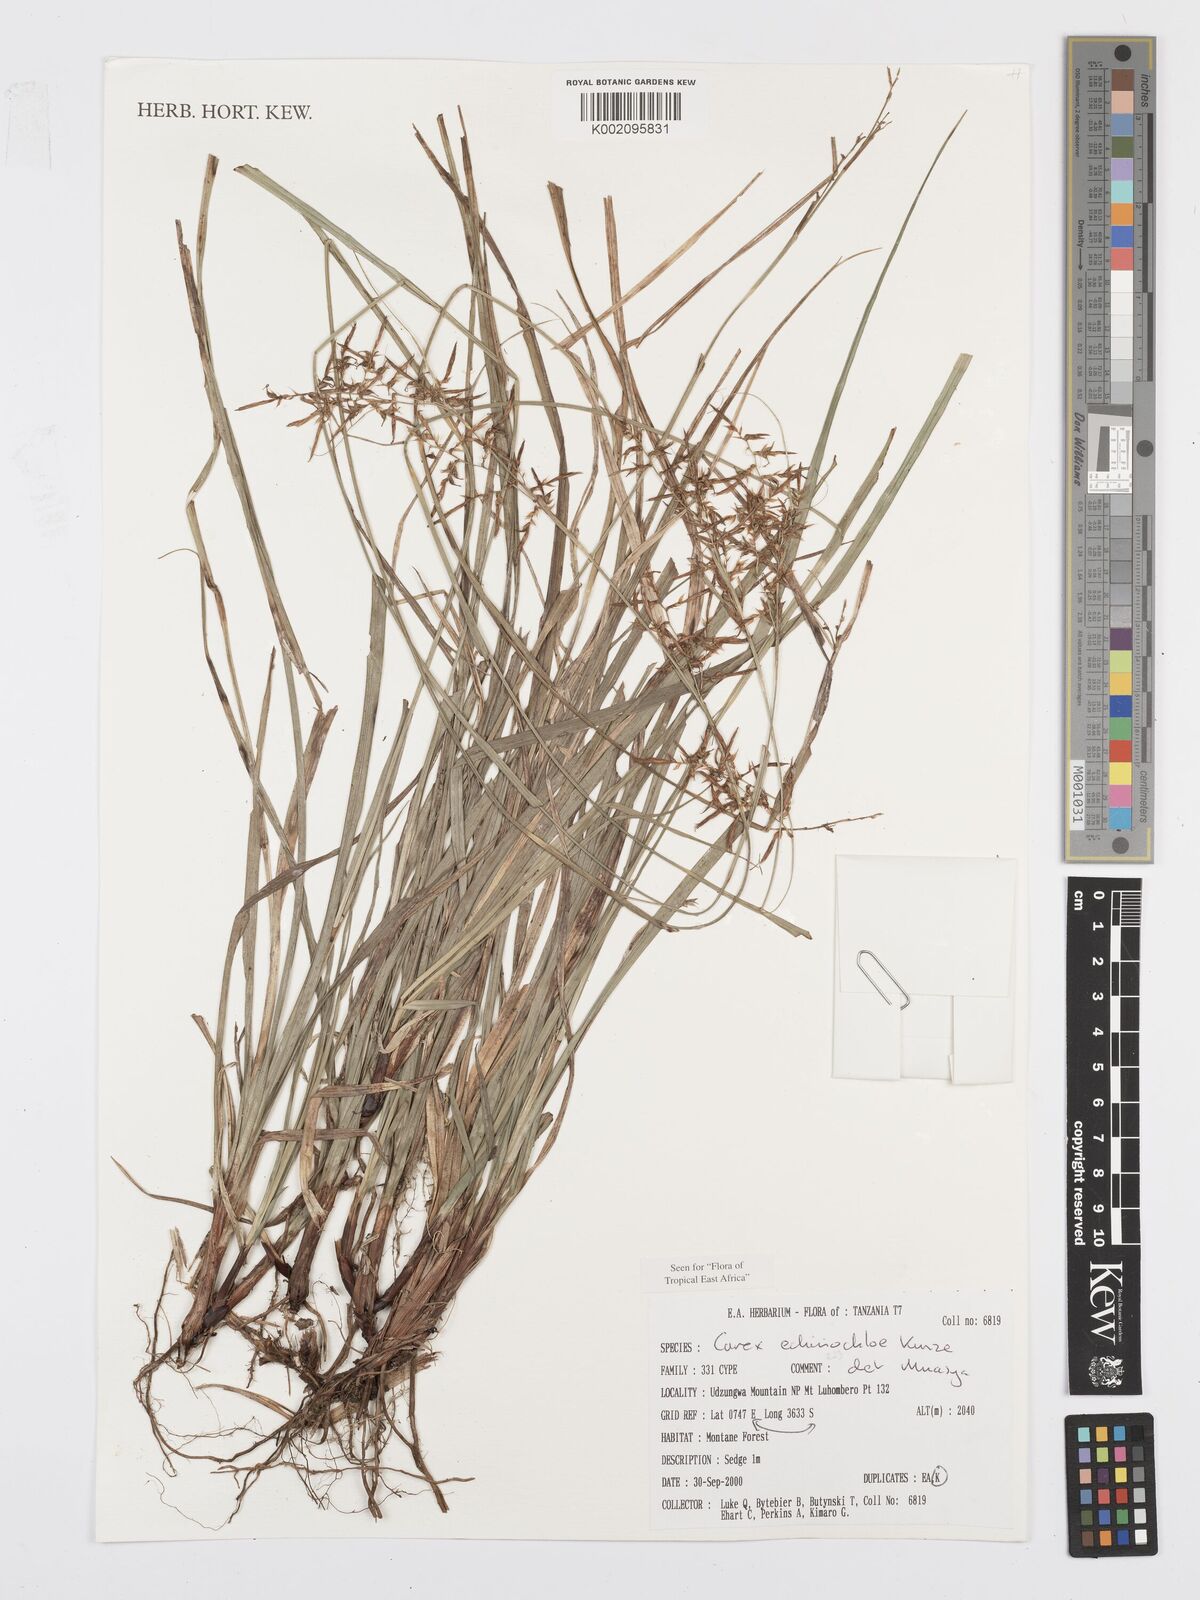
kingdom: Plantae
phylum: Tracheophyta
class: Liliopsida
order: Poales
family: Cyperaceae
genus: Carex
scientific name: Carex echinochloe
